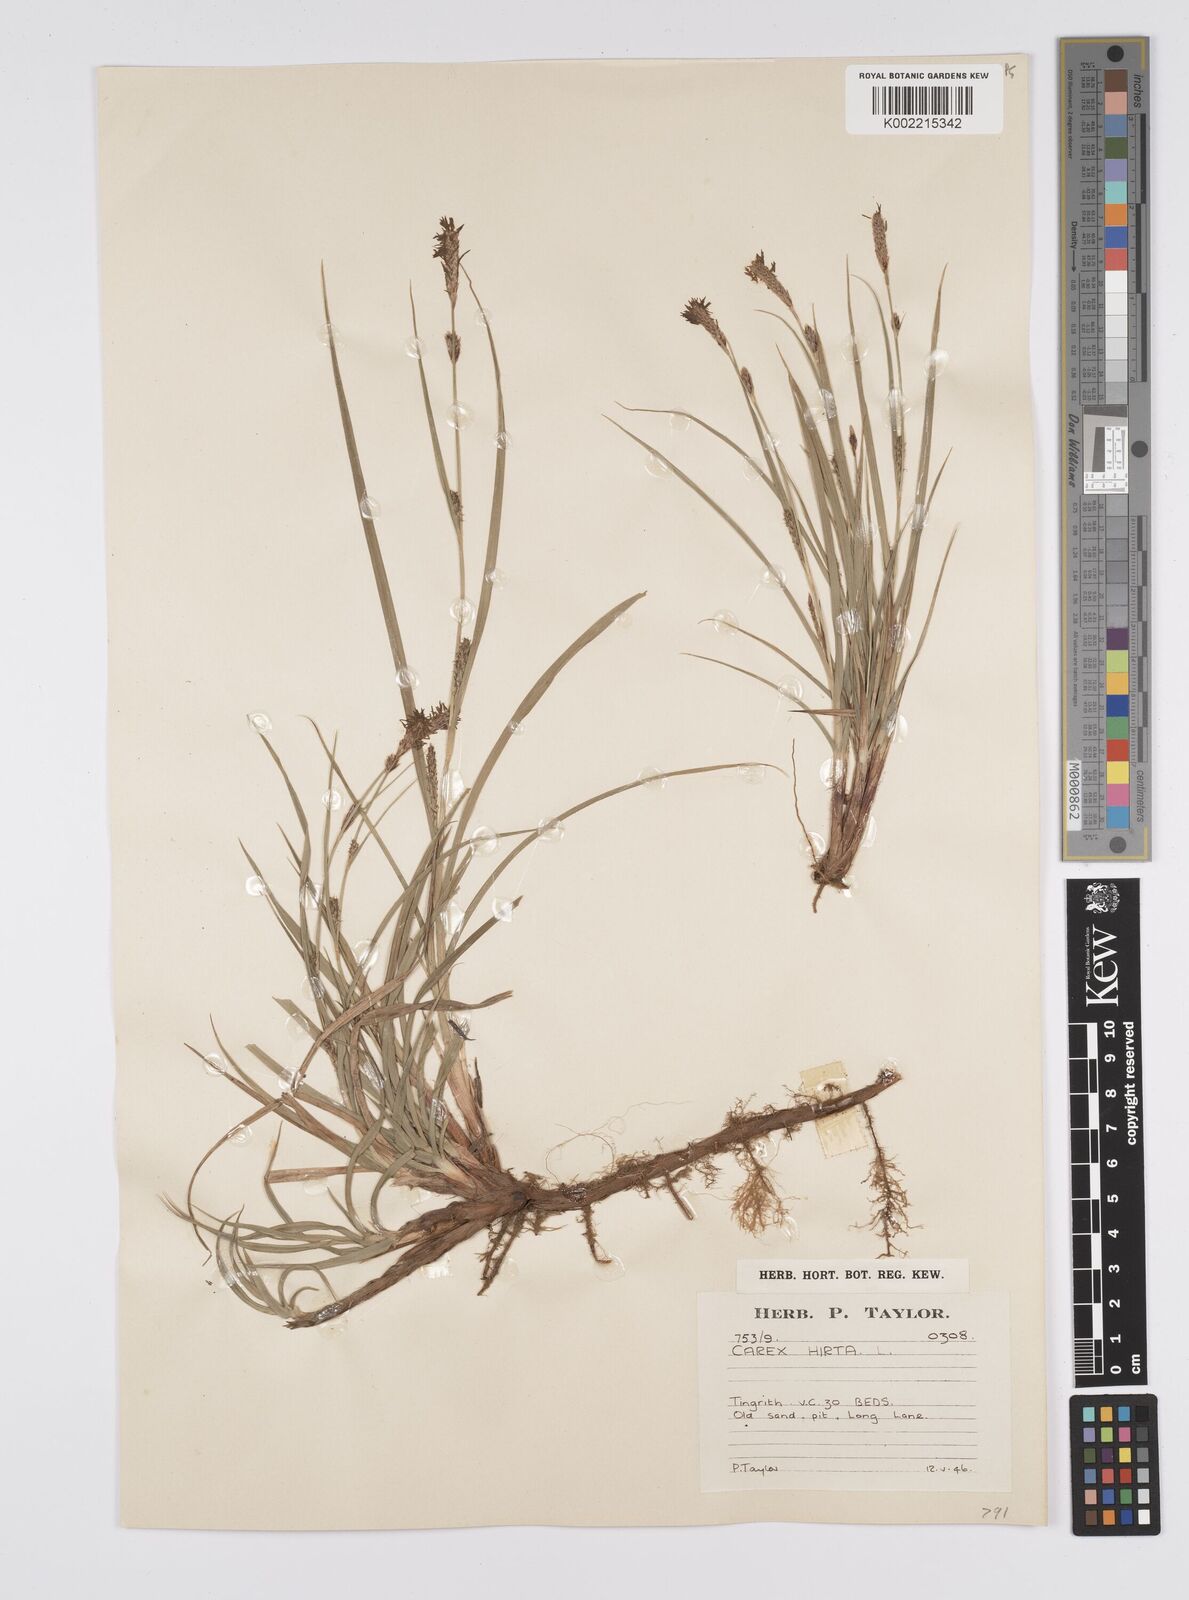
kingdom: Plantae
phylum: Tracheophyta
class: Liliopsida
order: Poales
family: Cyperaceae
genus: Carex
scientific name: Carex hirta
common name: Hairy sedge
